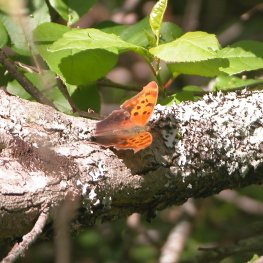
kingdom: Animalia
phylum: Arthropoda
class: Insecta
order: Lepidoptera
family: Nymphalidae
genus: Polygonia
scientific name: Polygonia interrogationis
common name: Question Mark
